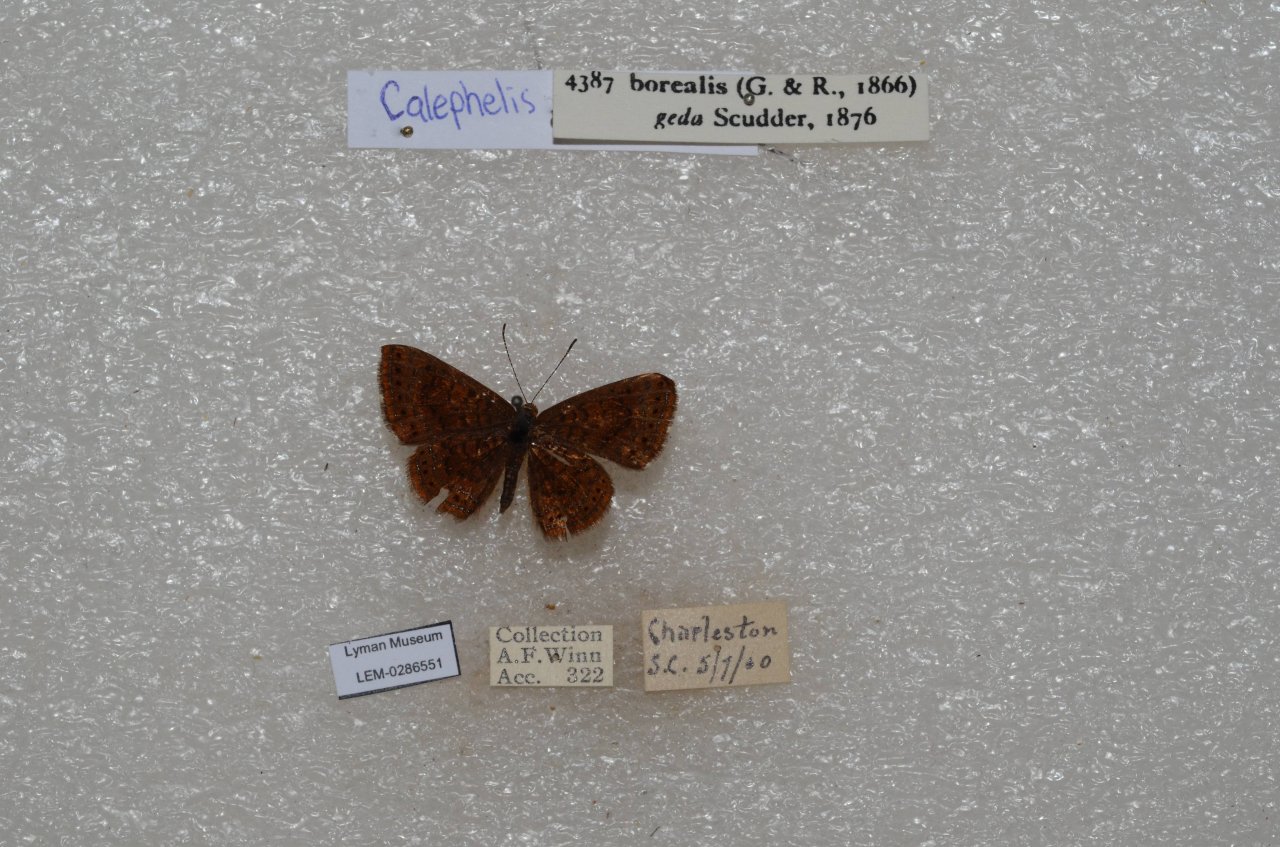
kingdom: Animalia
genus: Calephelis
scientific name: Calephelis virginiensis
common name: Little Metalmark
